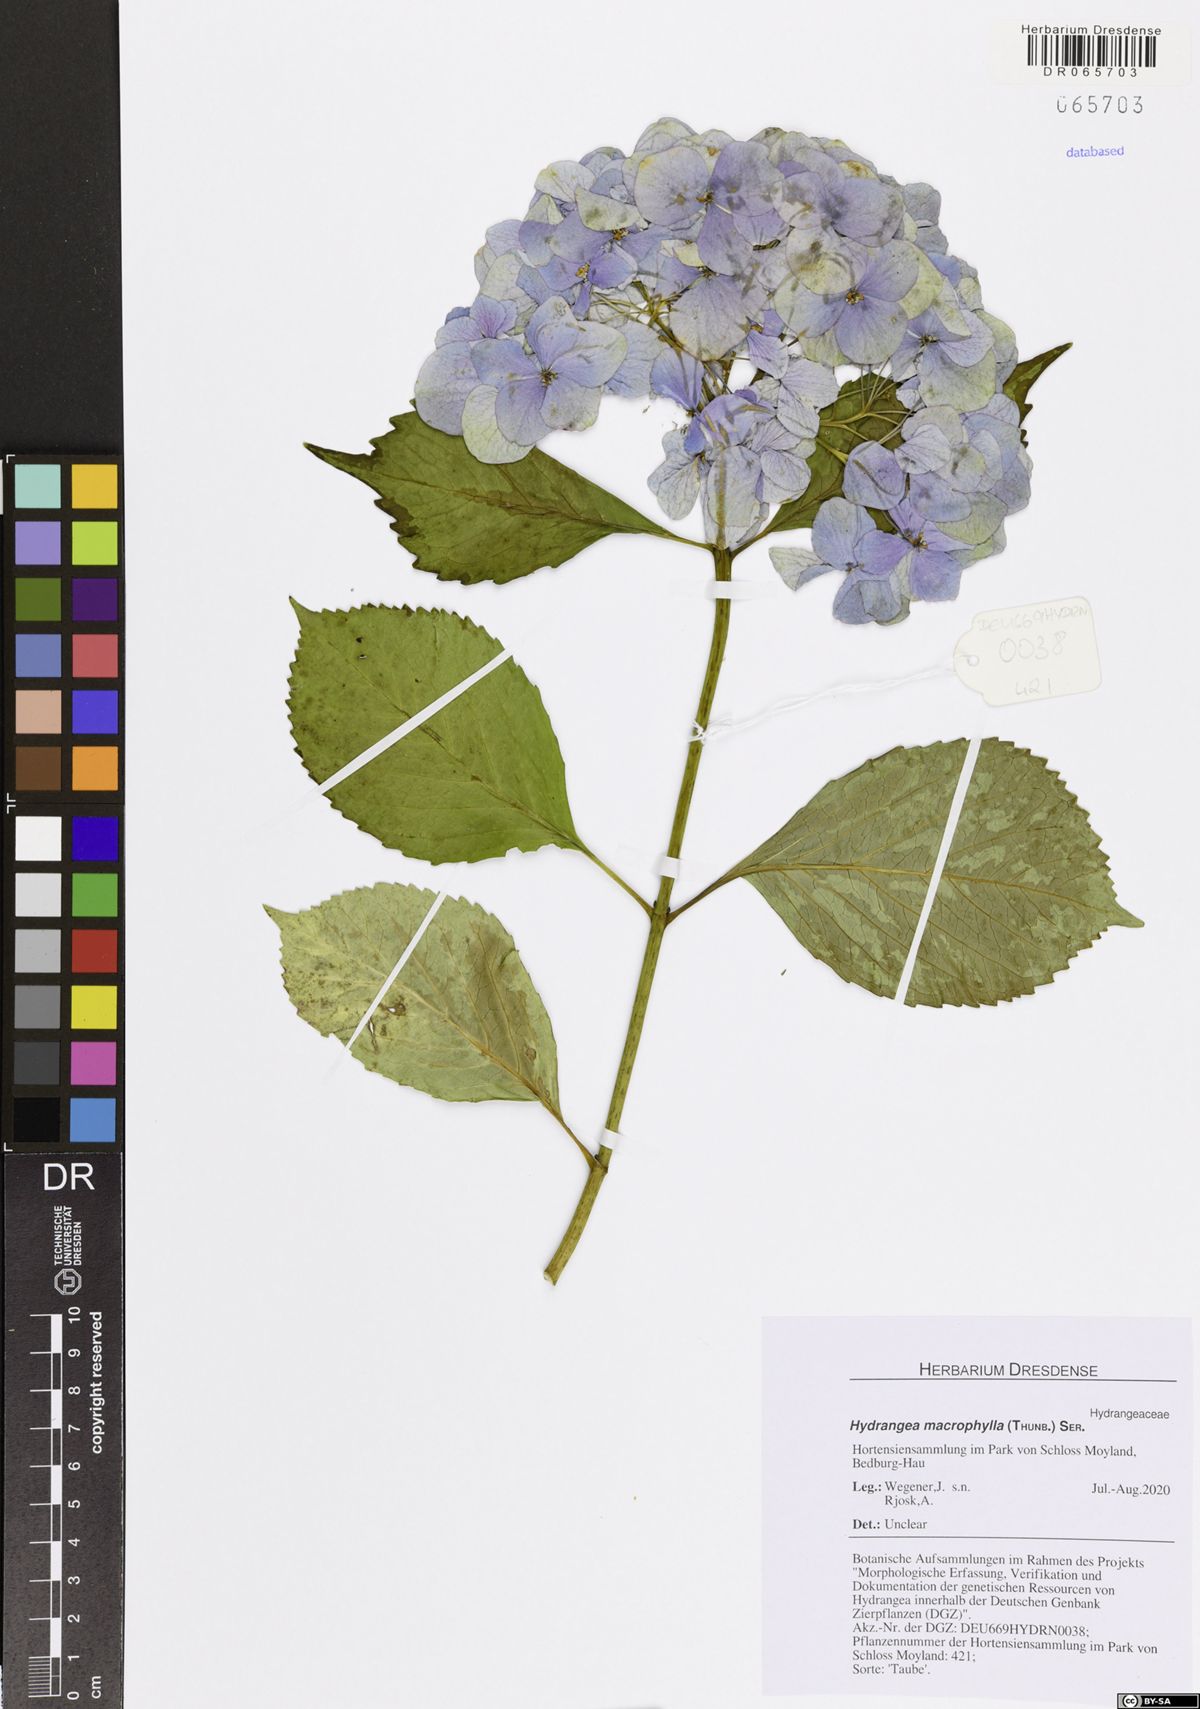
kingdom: Plantae
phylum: Tracheophyta
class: Magnoliopsida
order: Cornales
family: Hydrangeaceae
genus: Hydrangea
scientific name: Hydrangea macrophylla
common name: Hydrangea
